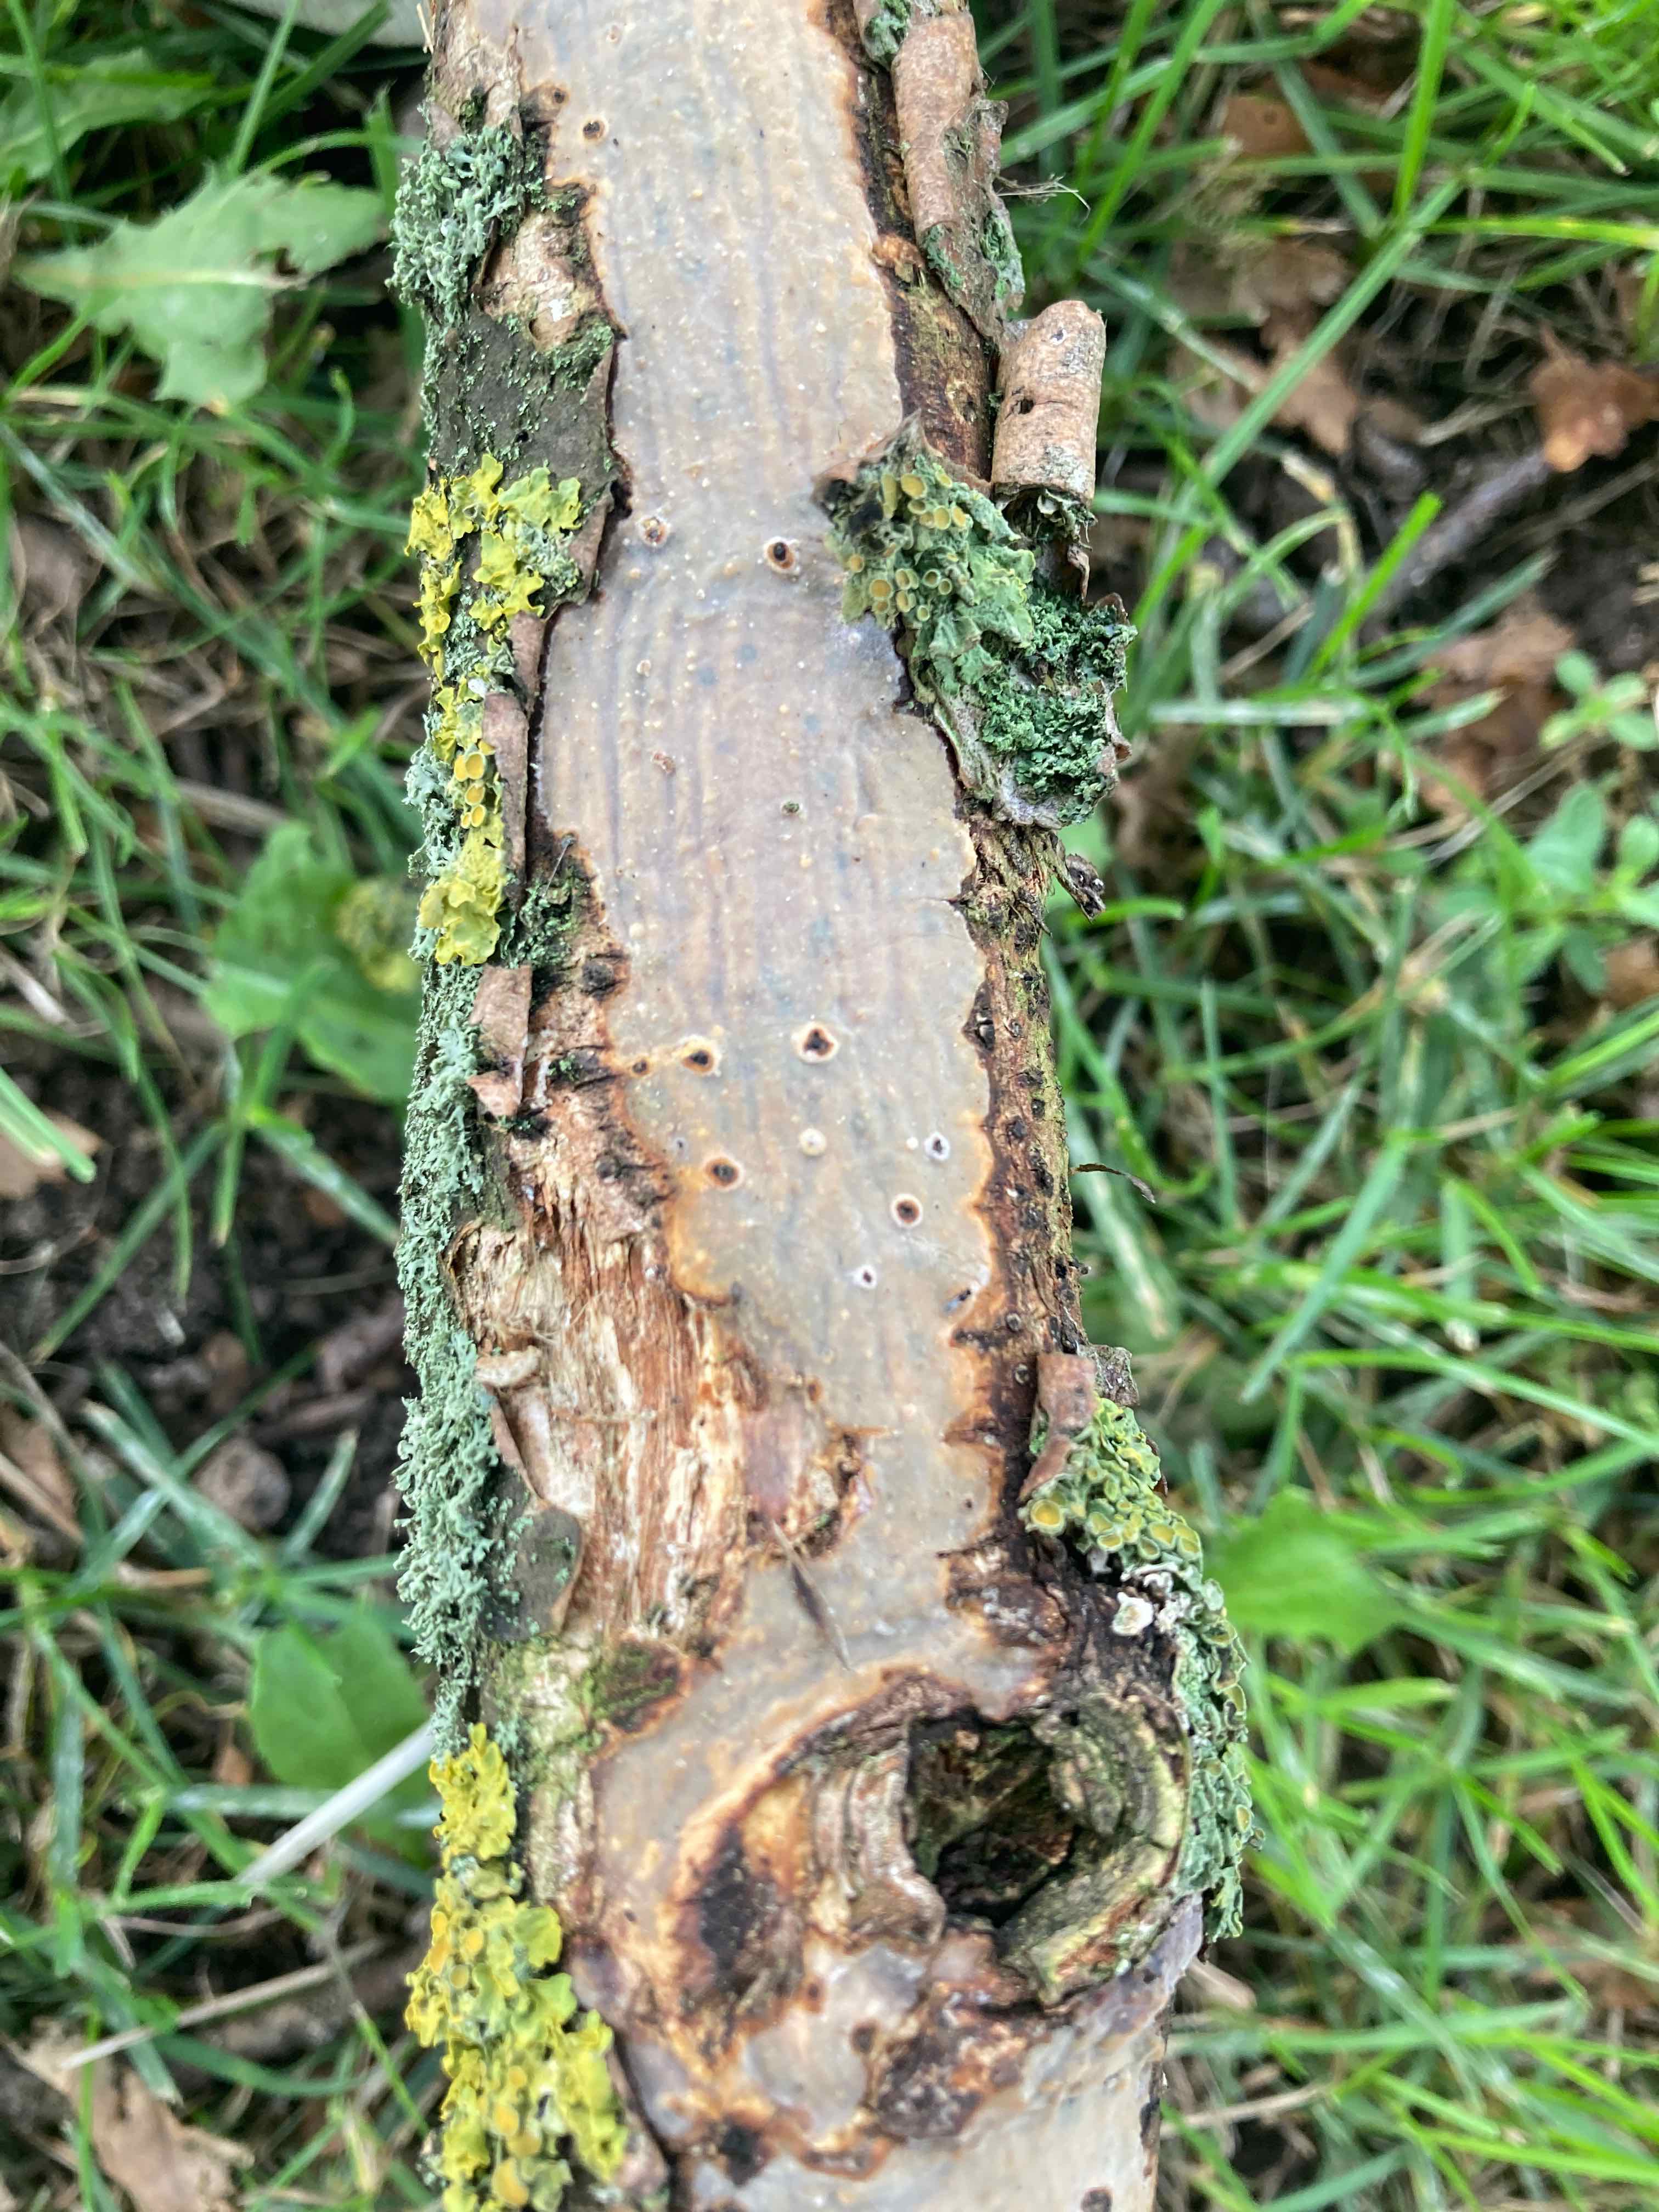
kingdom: Fungi
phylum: Basidiomycota
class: Agaricomycetes
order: Corticiales
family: Vuilleminiaceae
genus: Vuilleminia
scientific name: Vuilleminia comedens
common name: almindelig barksprænger
